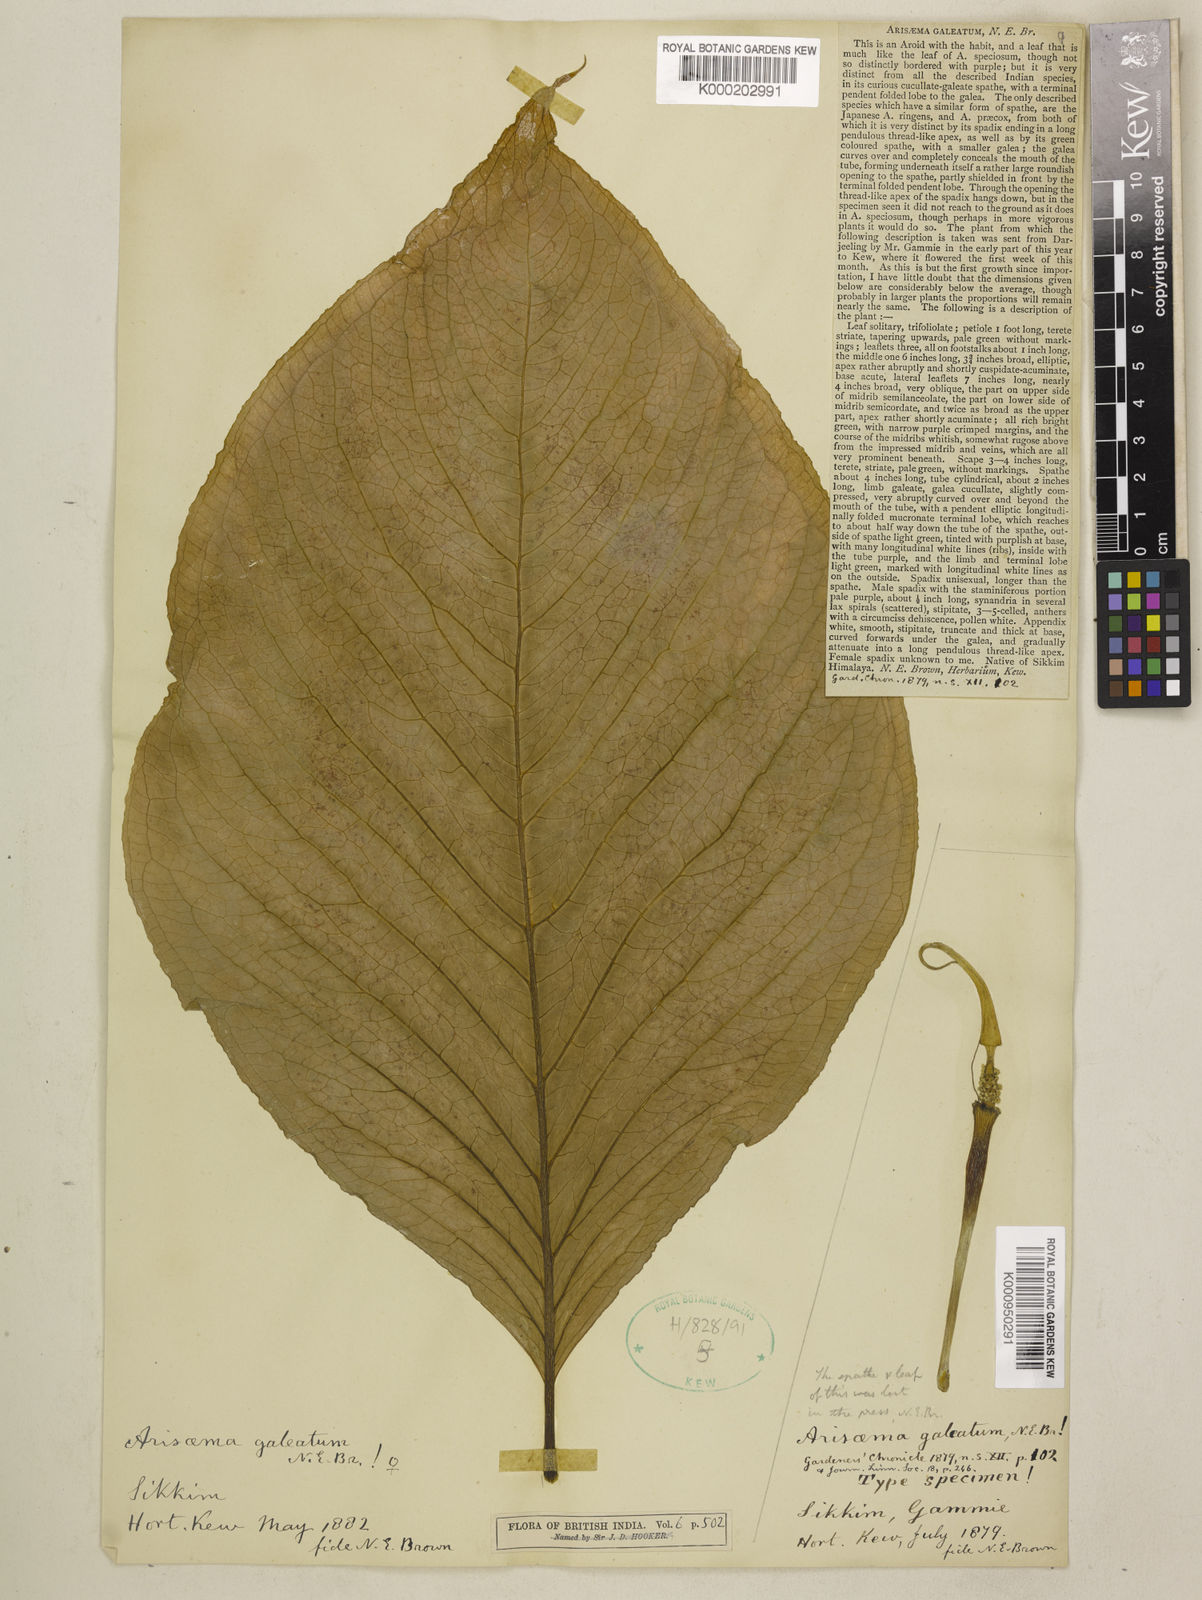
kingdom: Plantae
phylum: Tracheophyta
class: Liliopsida
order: Alismatales
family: Araceae
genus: Arisaema
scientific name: Arisaema galeatum
